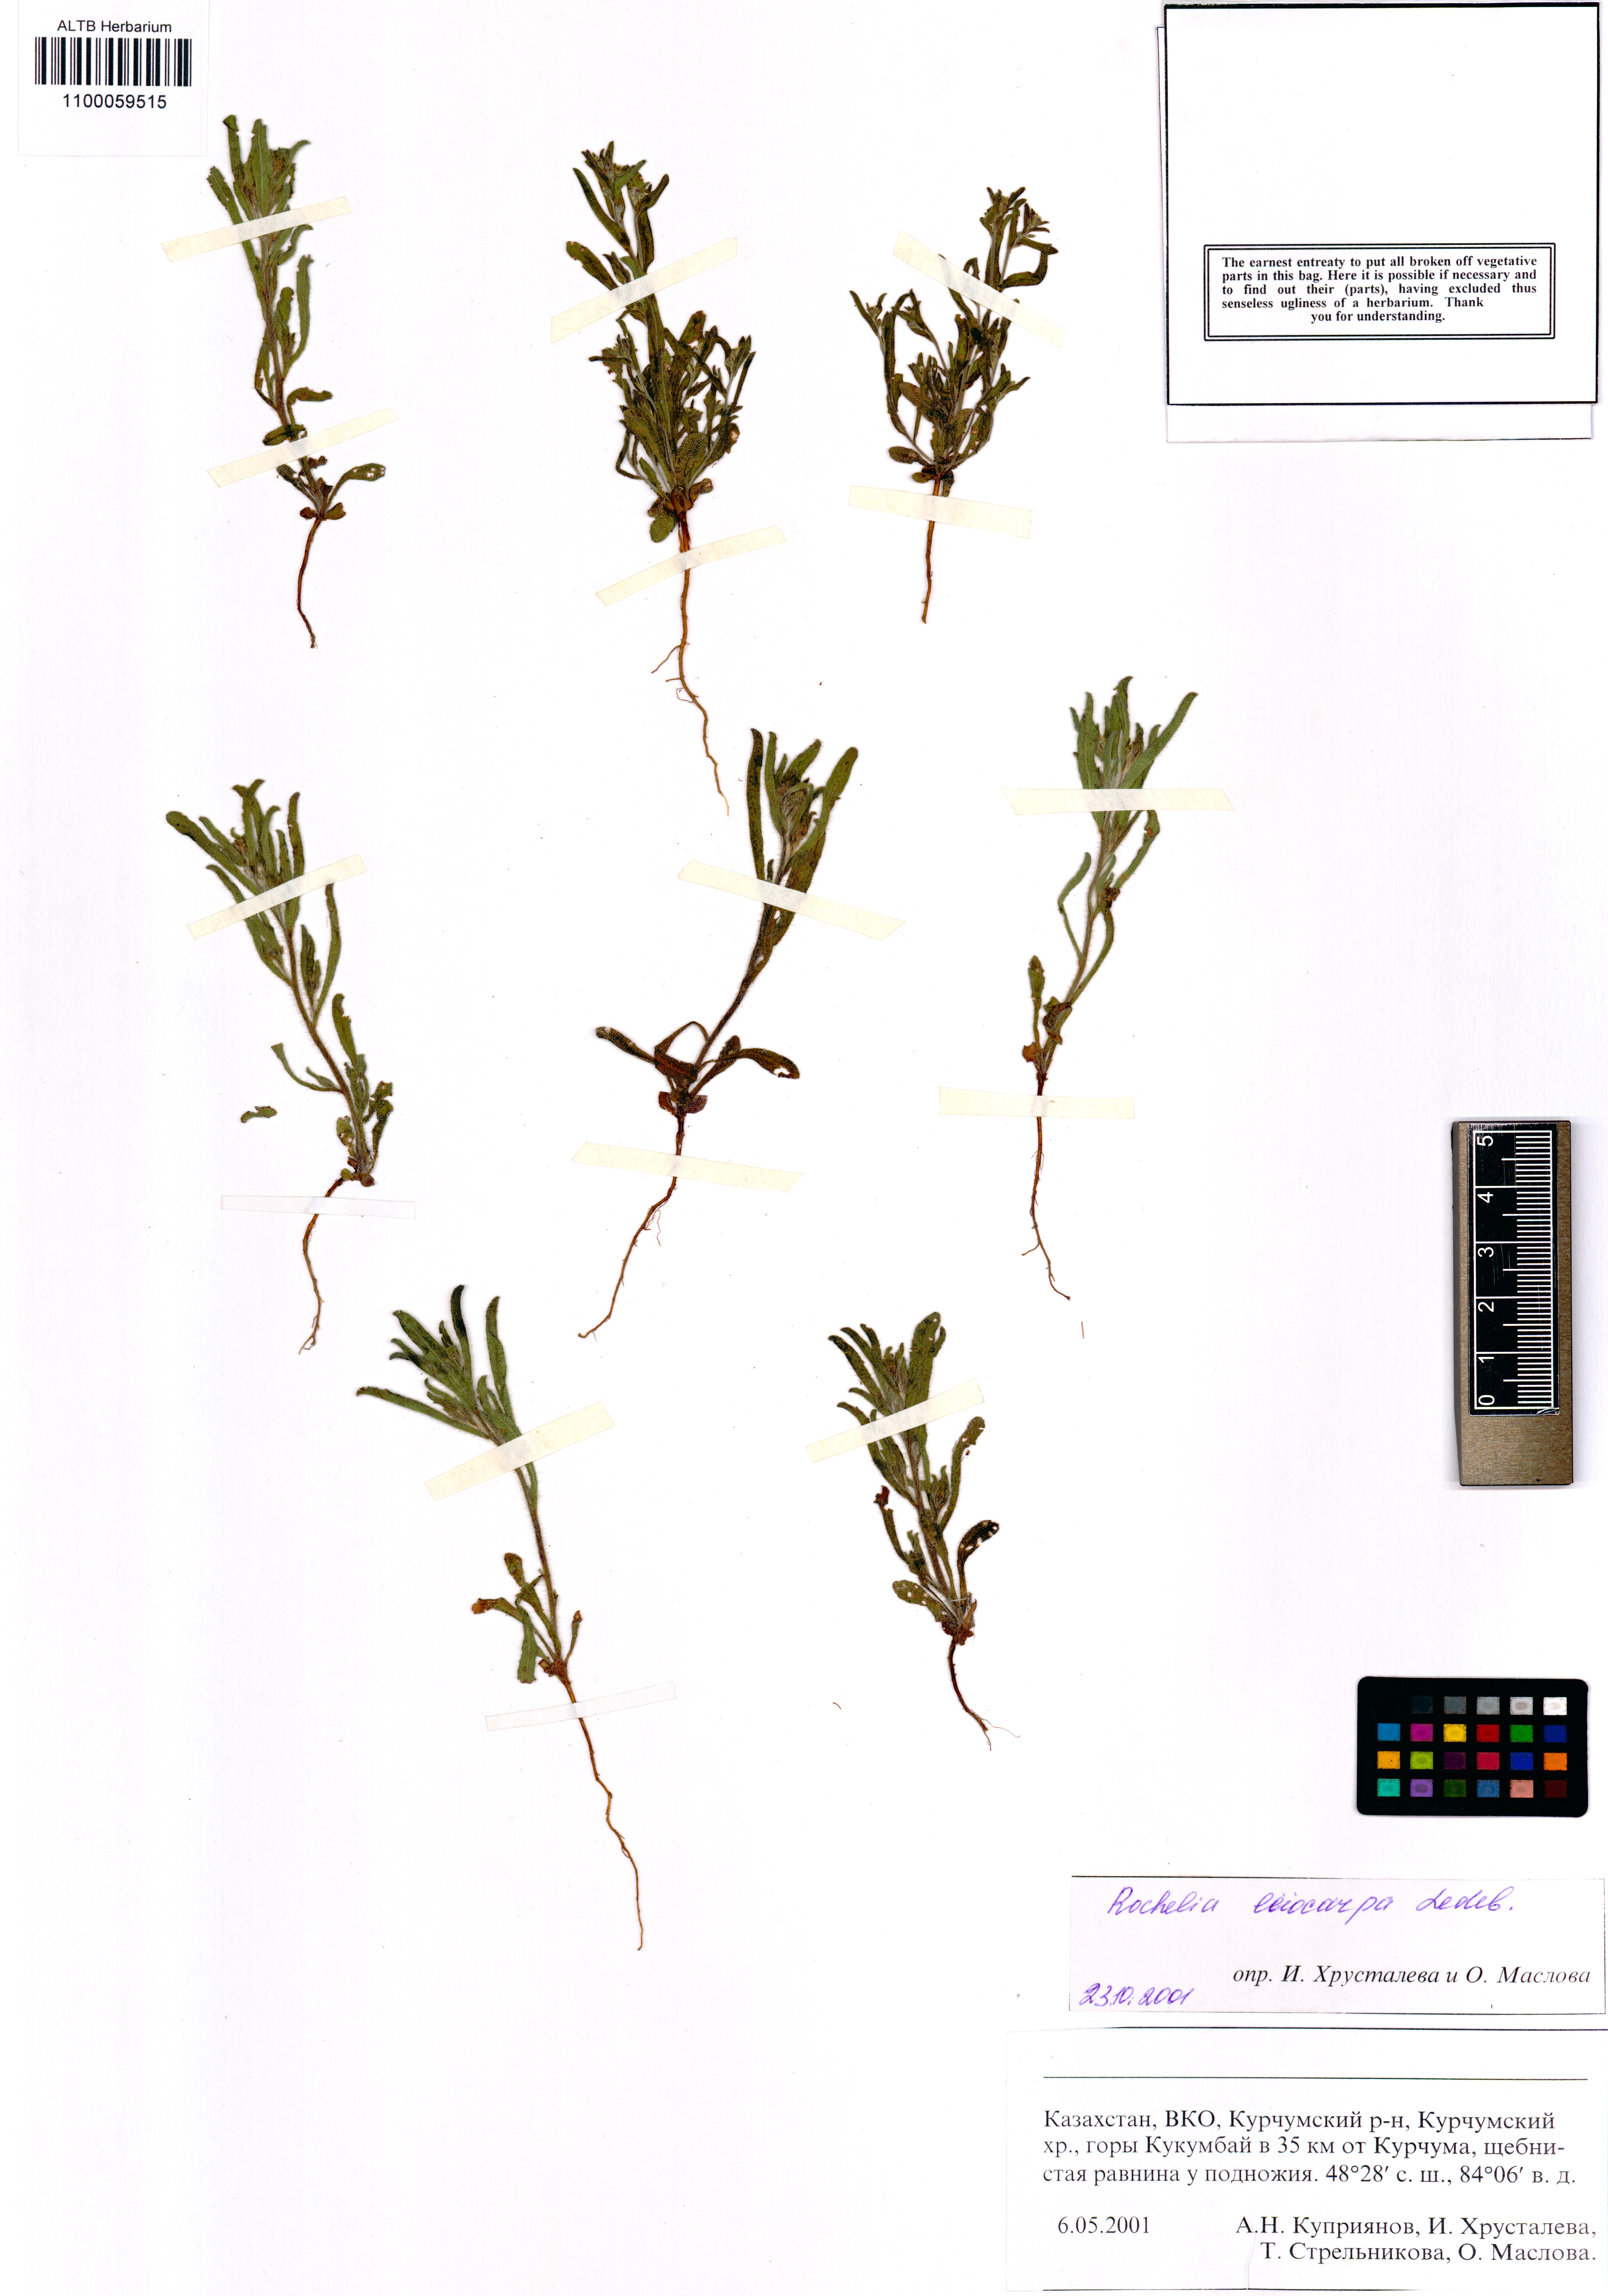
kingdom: Plantae
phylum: Tracheophyta
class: Magnoliopsida
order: Boraginales
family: Boraginaceae
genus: Rochelia
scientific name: Rochelia leiocarpa
